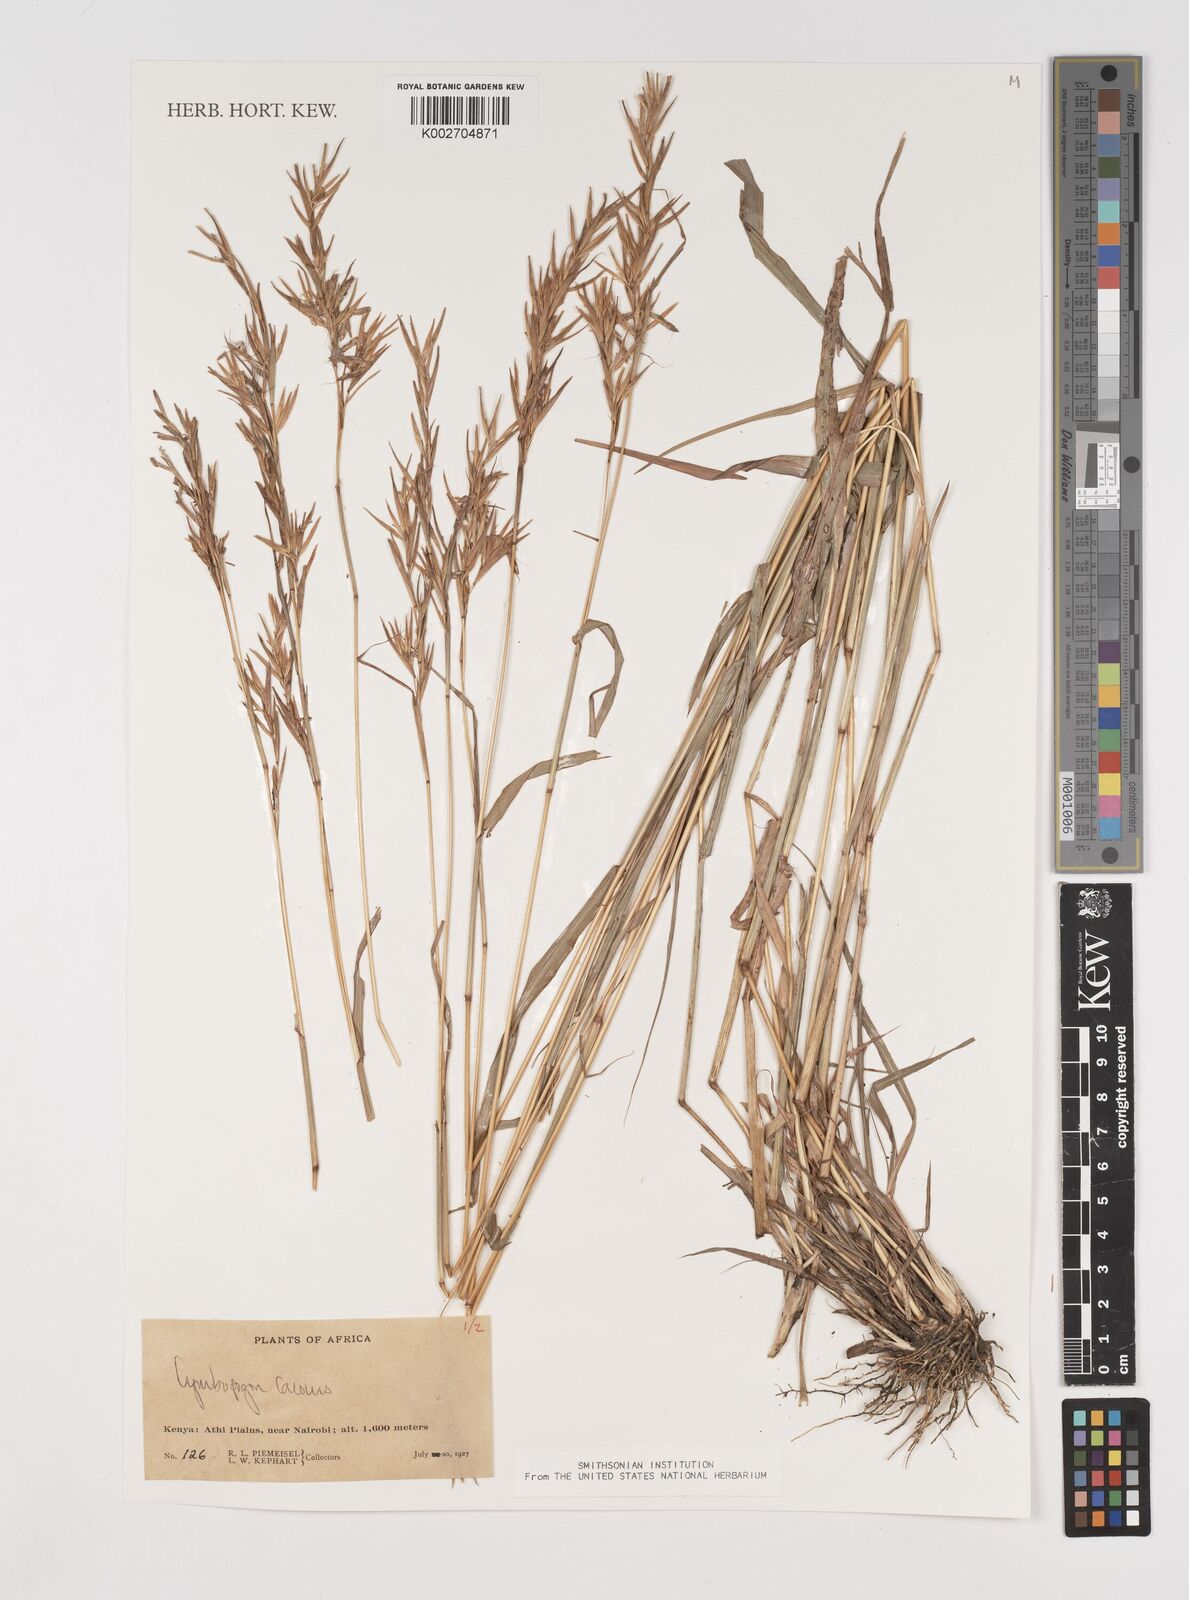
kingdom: Plantae
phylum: Tracheophyta
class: Liliopsida
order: Poales
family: Poaceae
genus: Cymbopogon
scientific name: Cymbopogon caesius
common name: Kachi grass
